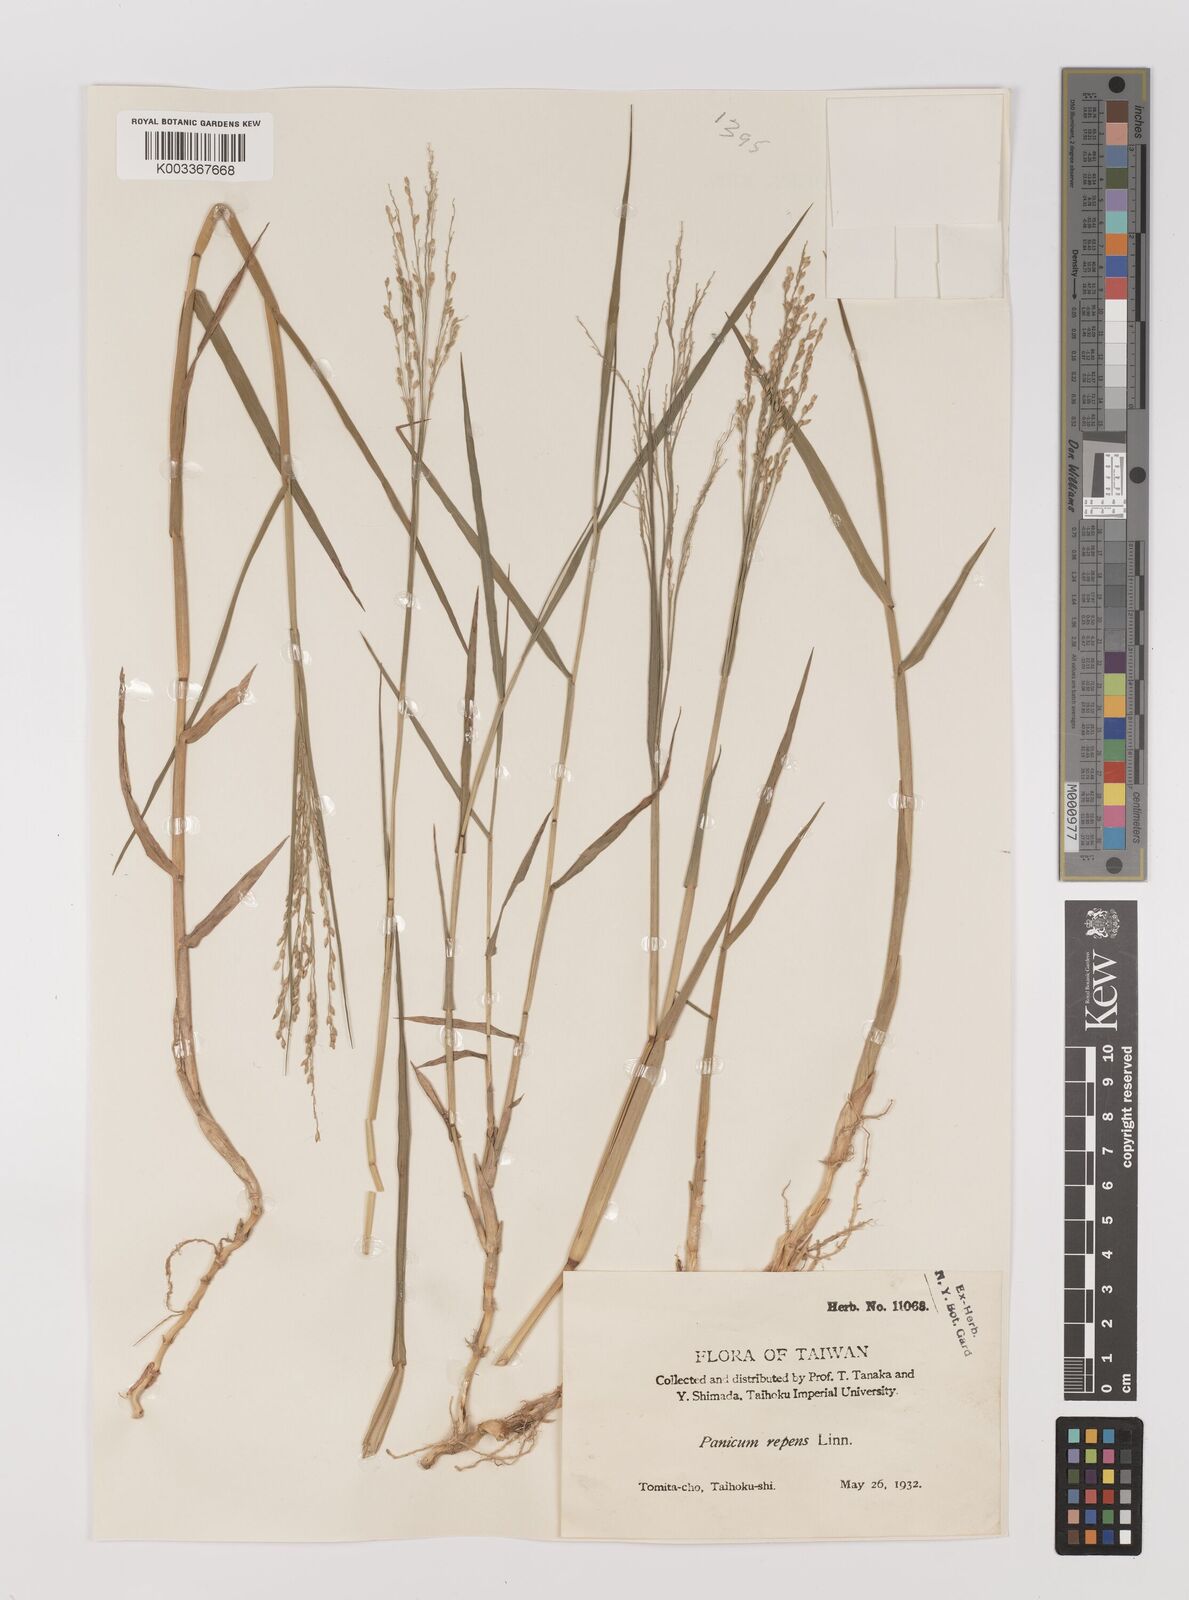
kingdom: Plantae
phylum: Tracheophyta
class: Liliopsida
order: Poales
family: Poaceae
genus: Panicum
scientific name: Panicum repens
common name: Torpedo grass
